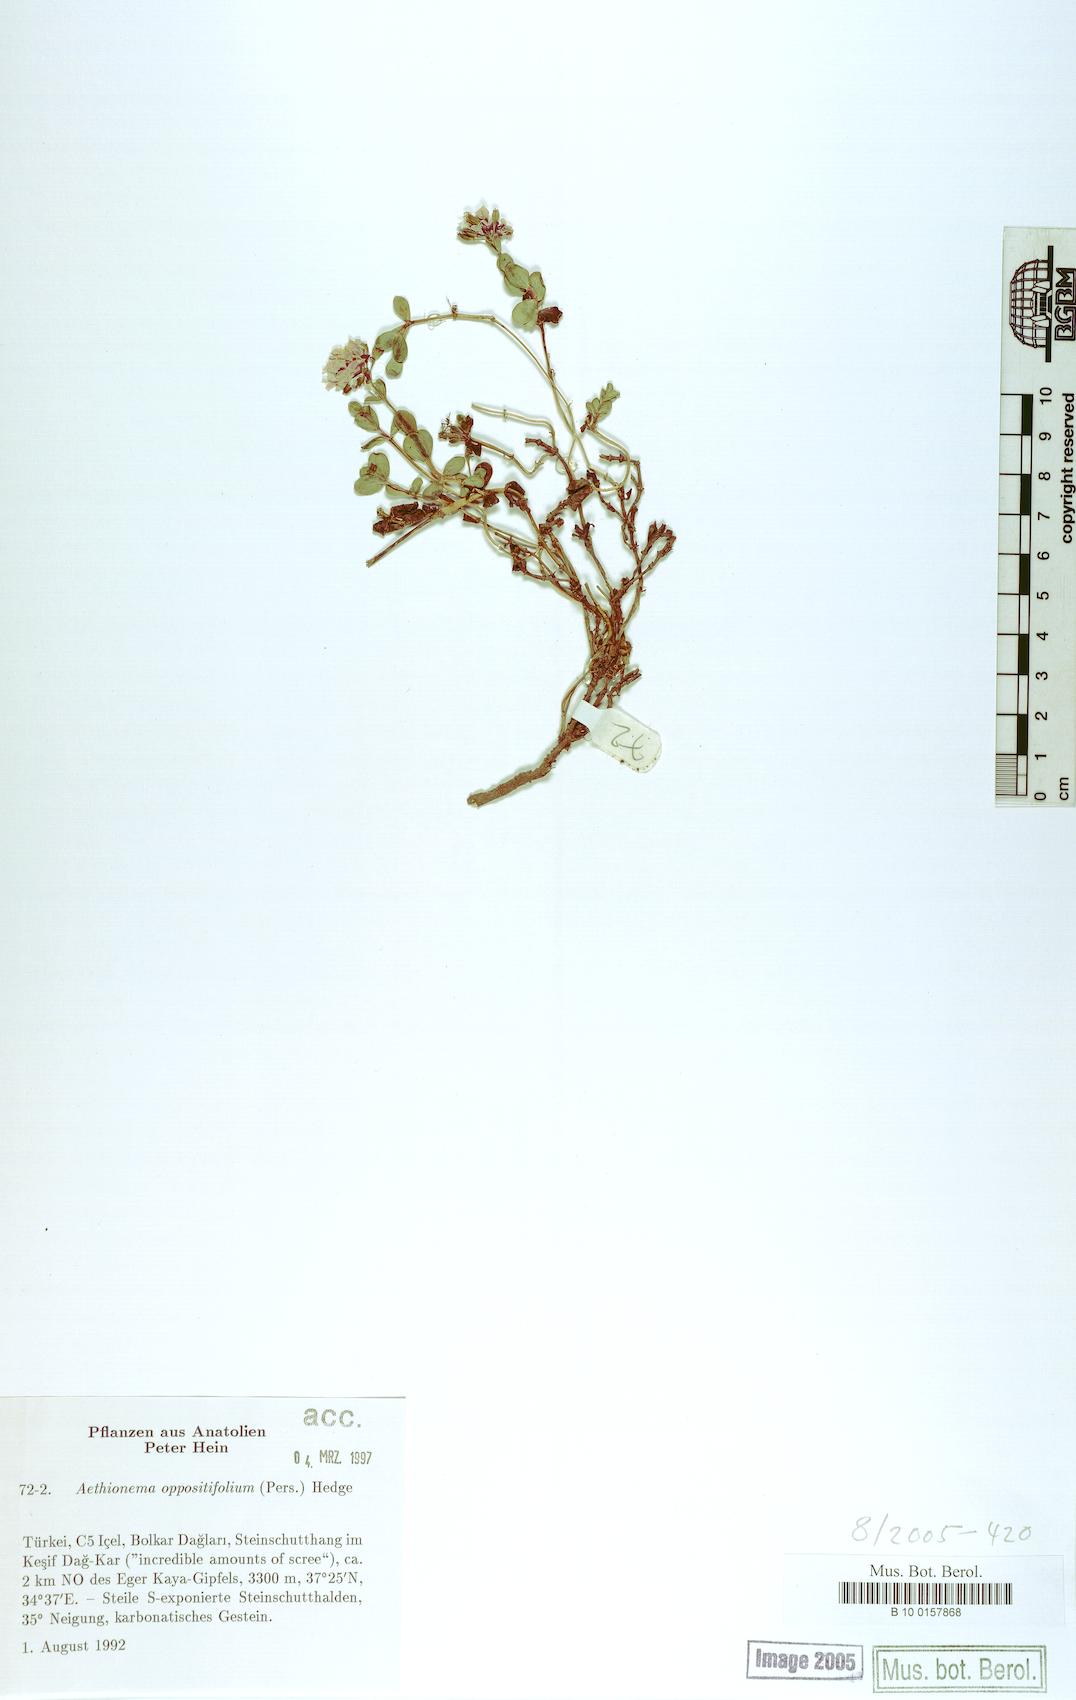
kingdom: Plantae
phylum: Tracheophyta
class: Magnoliopsida
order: Brassicales
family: Brassicaceae
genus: Noccaea
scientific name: Noccaea oppositifolia
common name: Twin-leaf stone-cress
